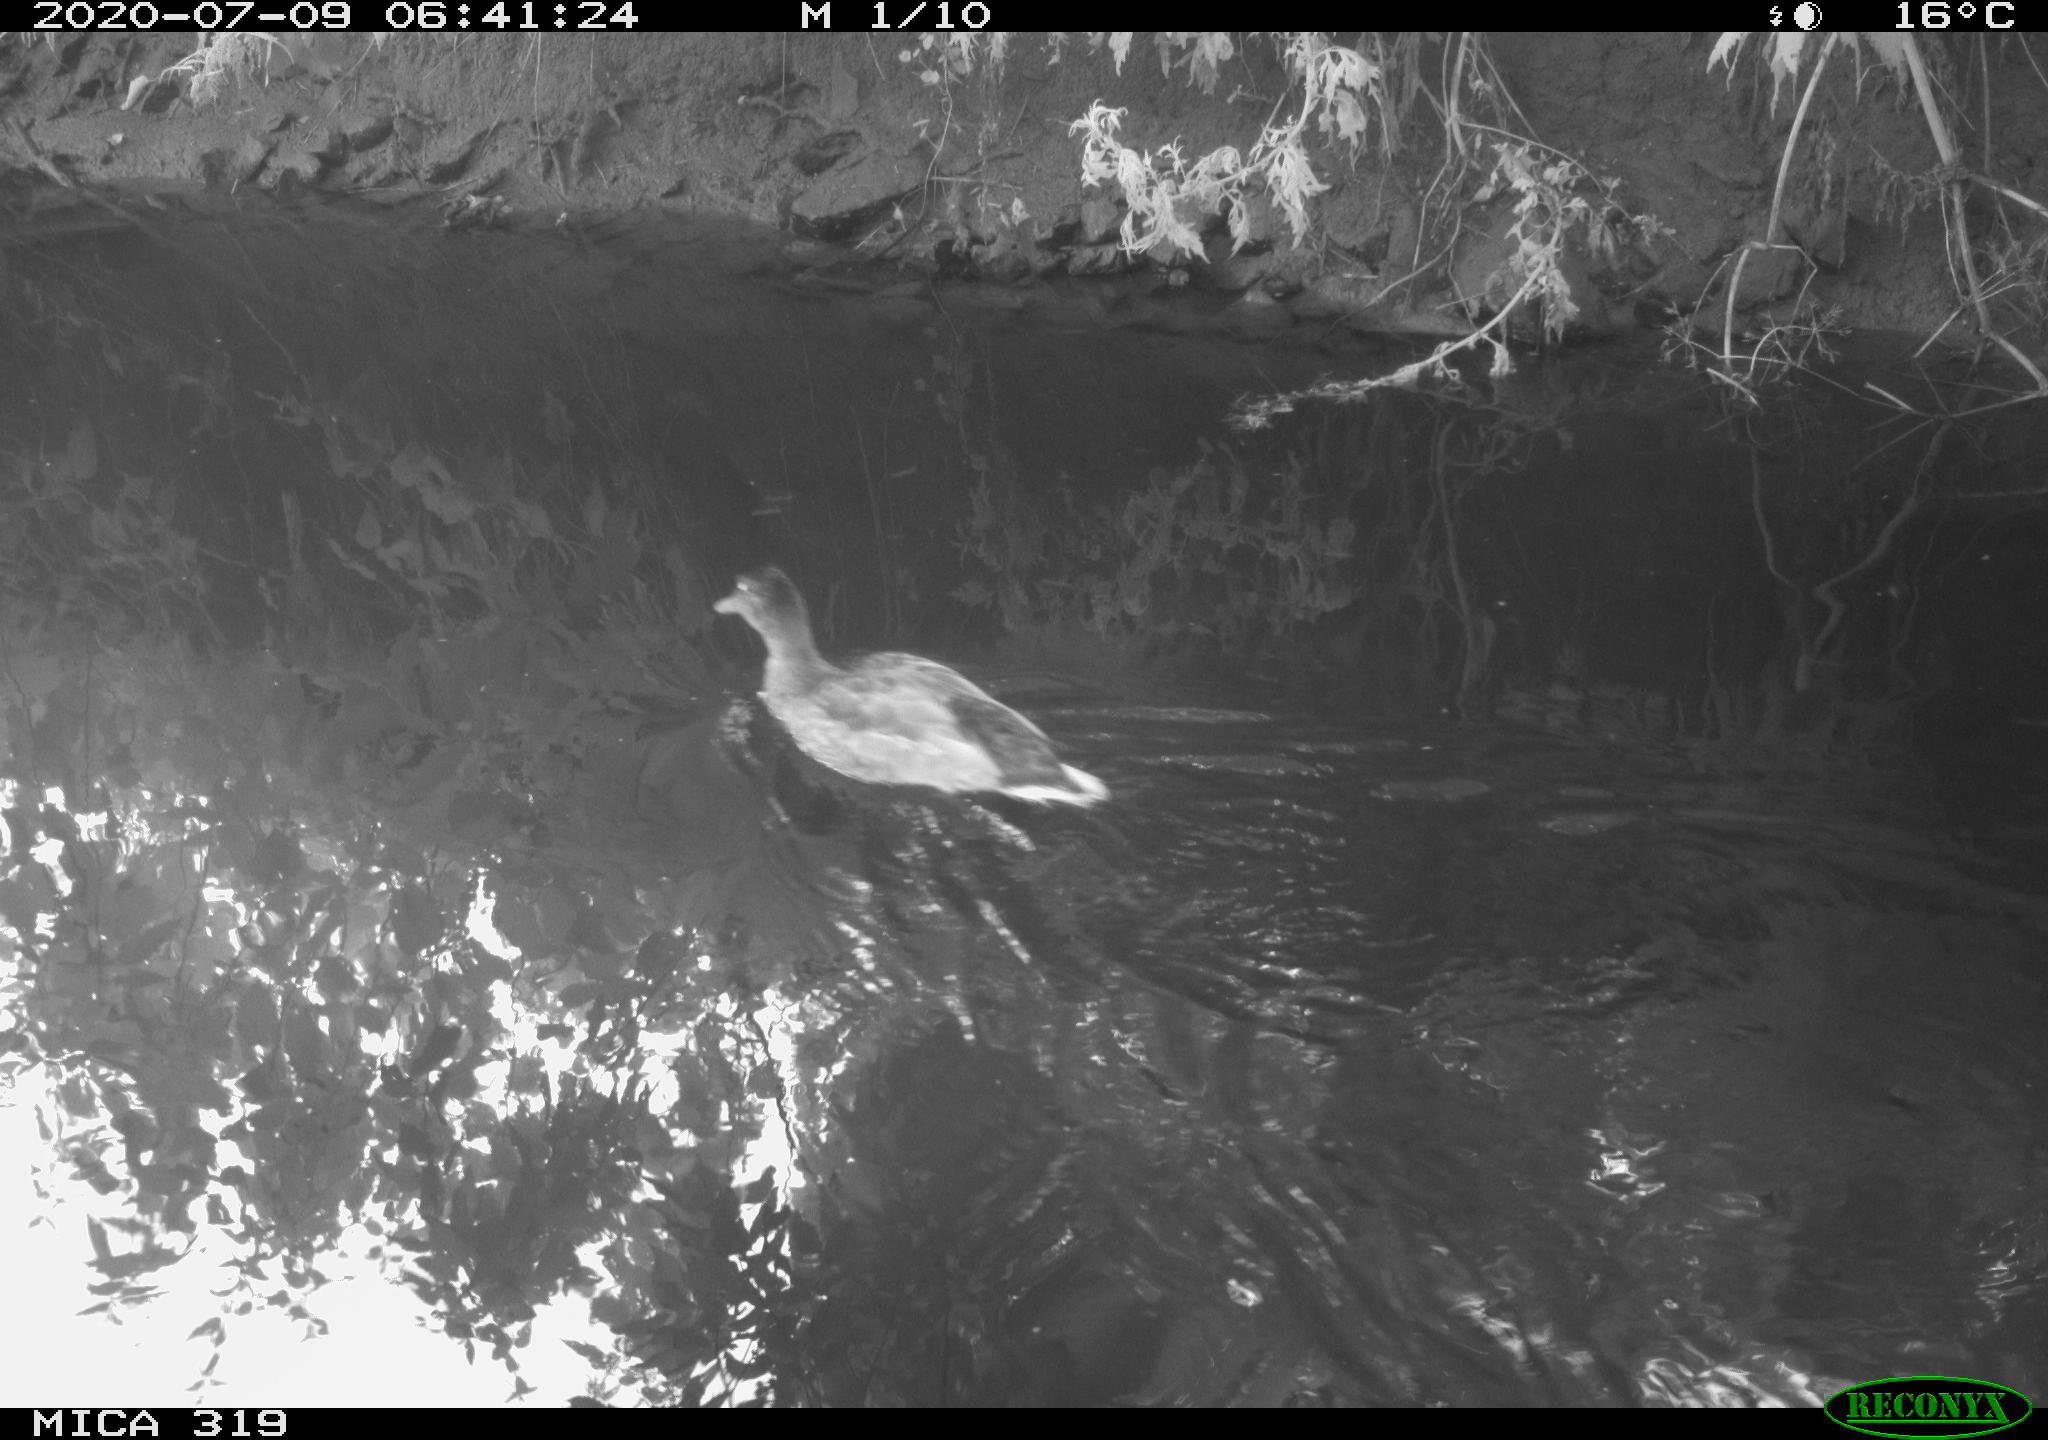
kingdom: Animalia
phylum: Chordata
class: Aves
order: Anseriformes
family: Anatidae
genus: Anas
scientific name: Anas platyrhynchos
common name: Mallard
